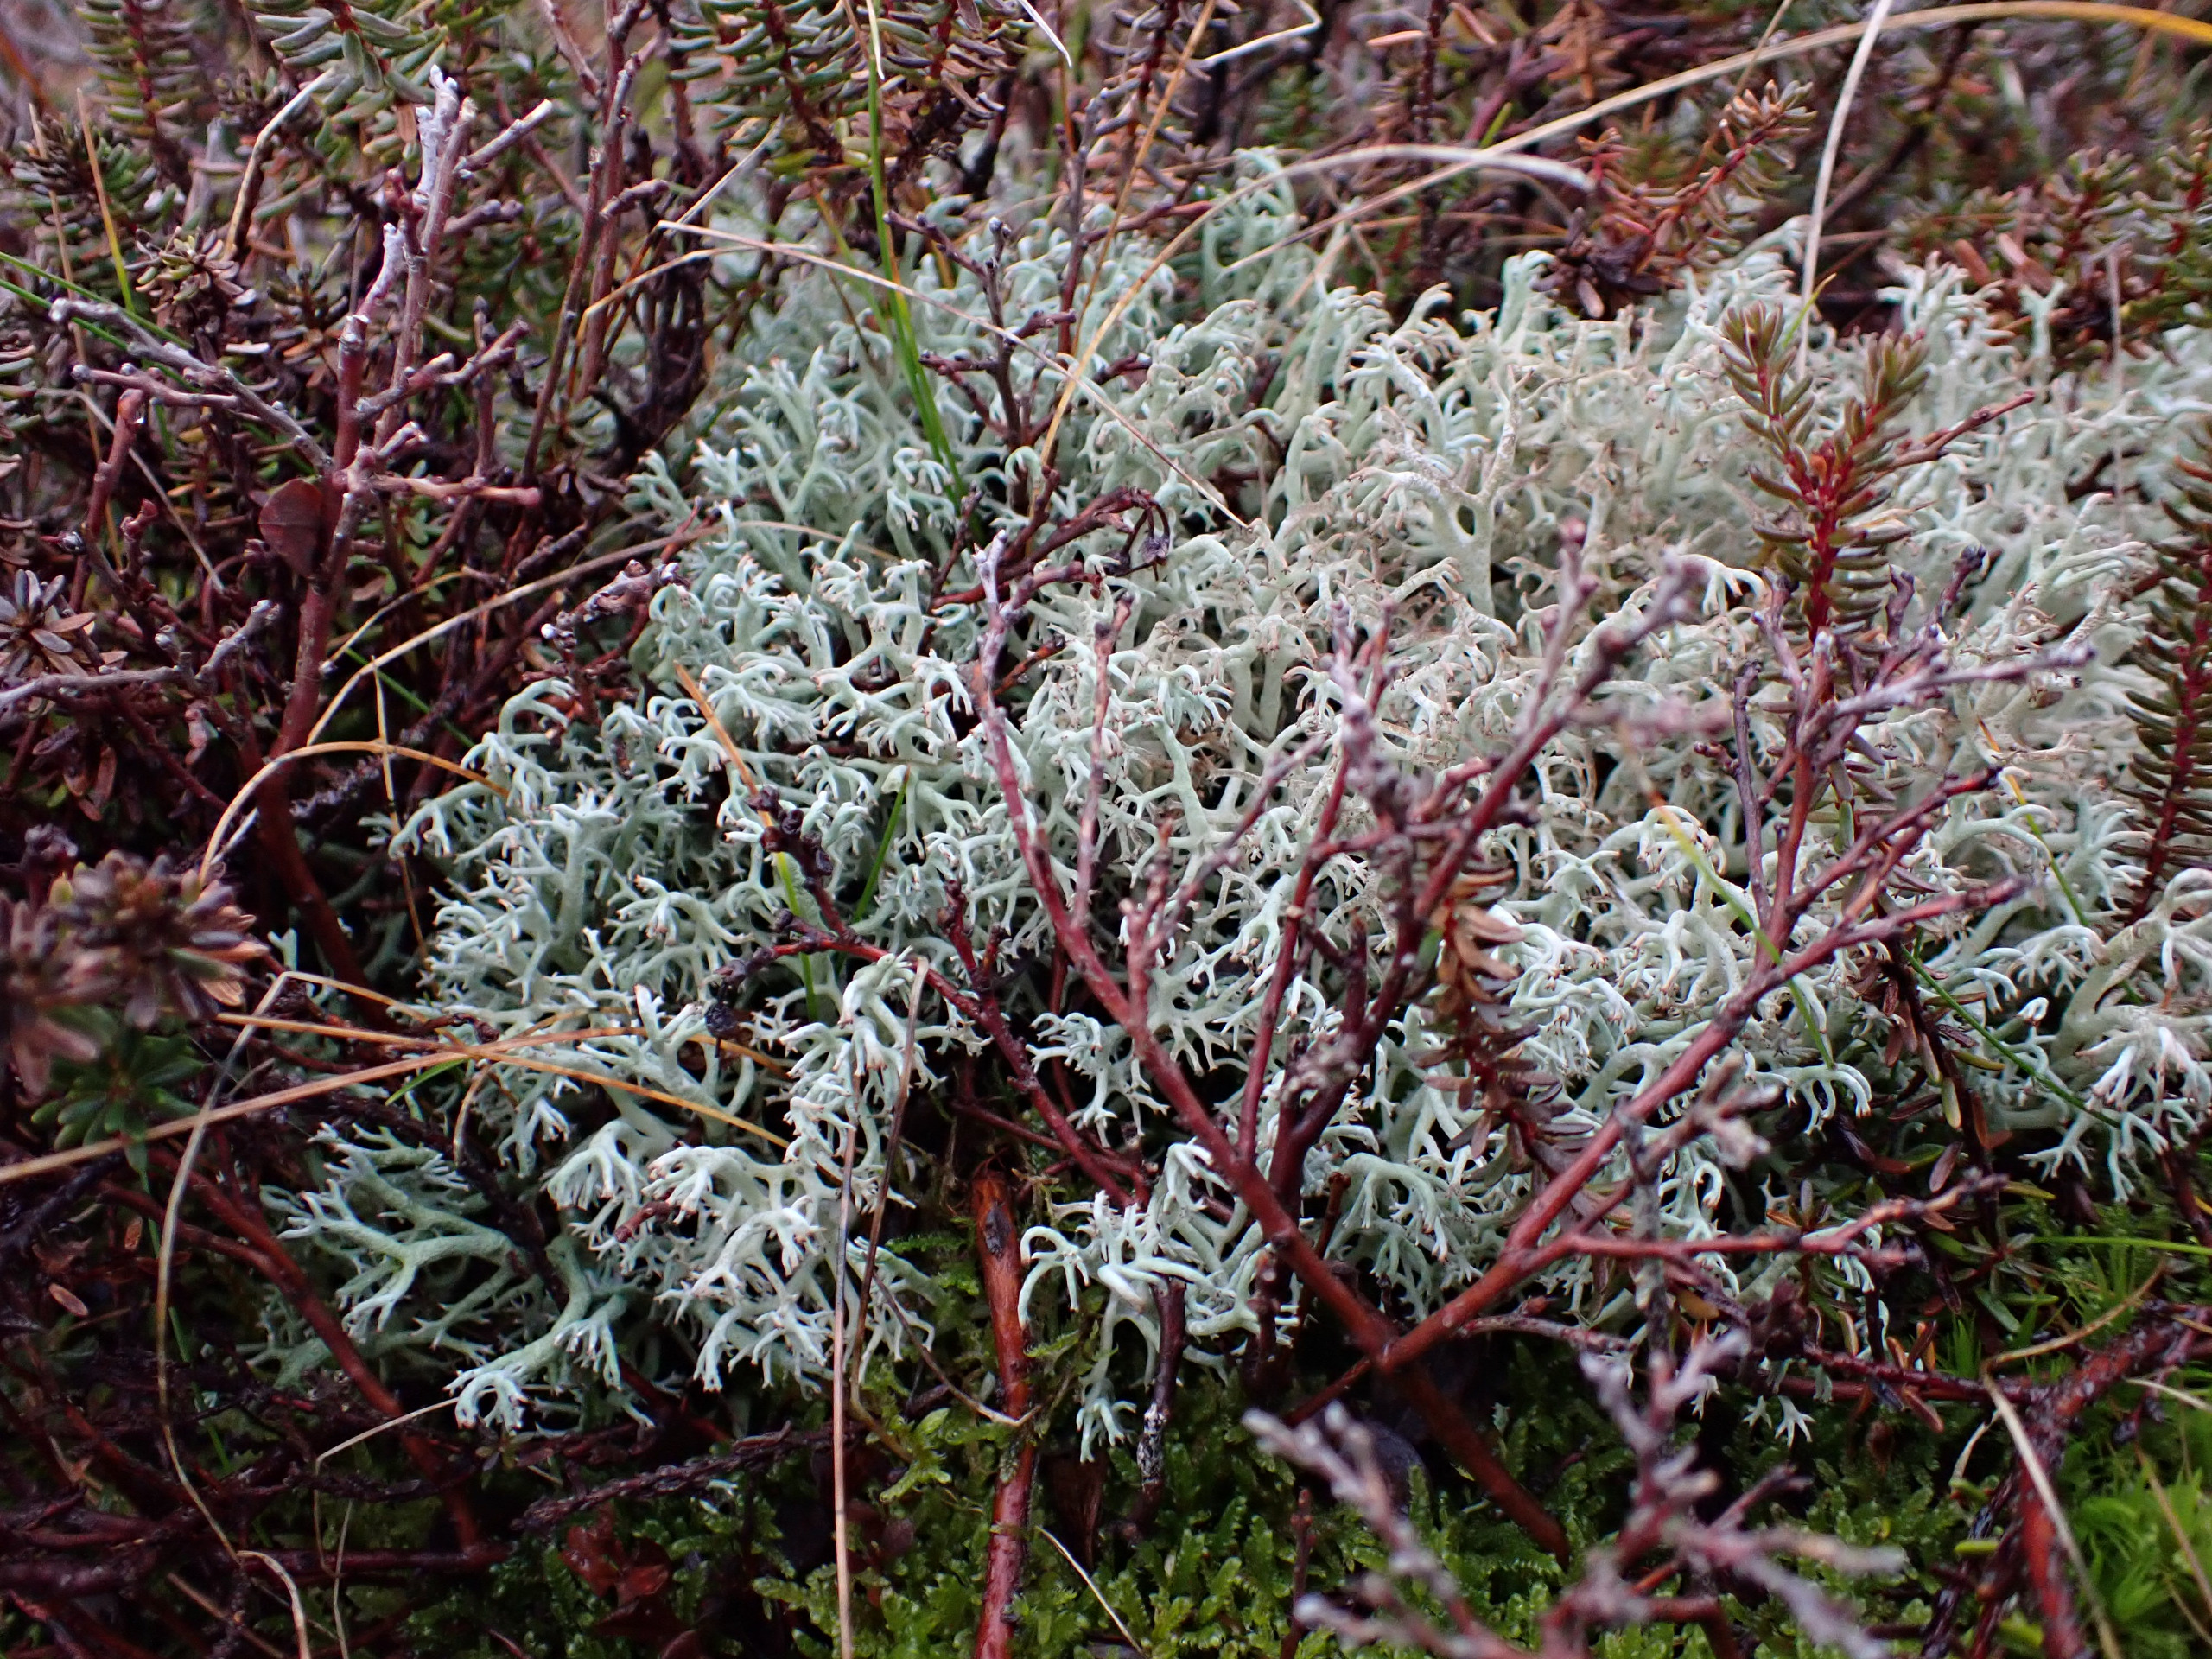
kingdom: Fungi
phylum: Ascomycota
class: Lecanoromycetes
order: Lecanorales
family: Cladoniaceae
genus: Cladonia
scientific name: Cladonia rangiferina
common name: Askegrå rensdyrlav
